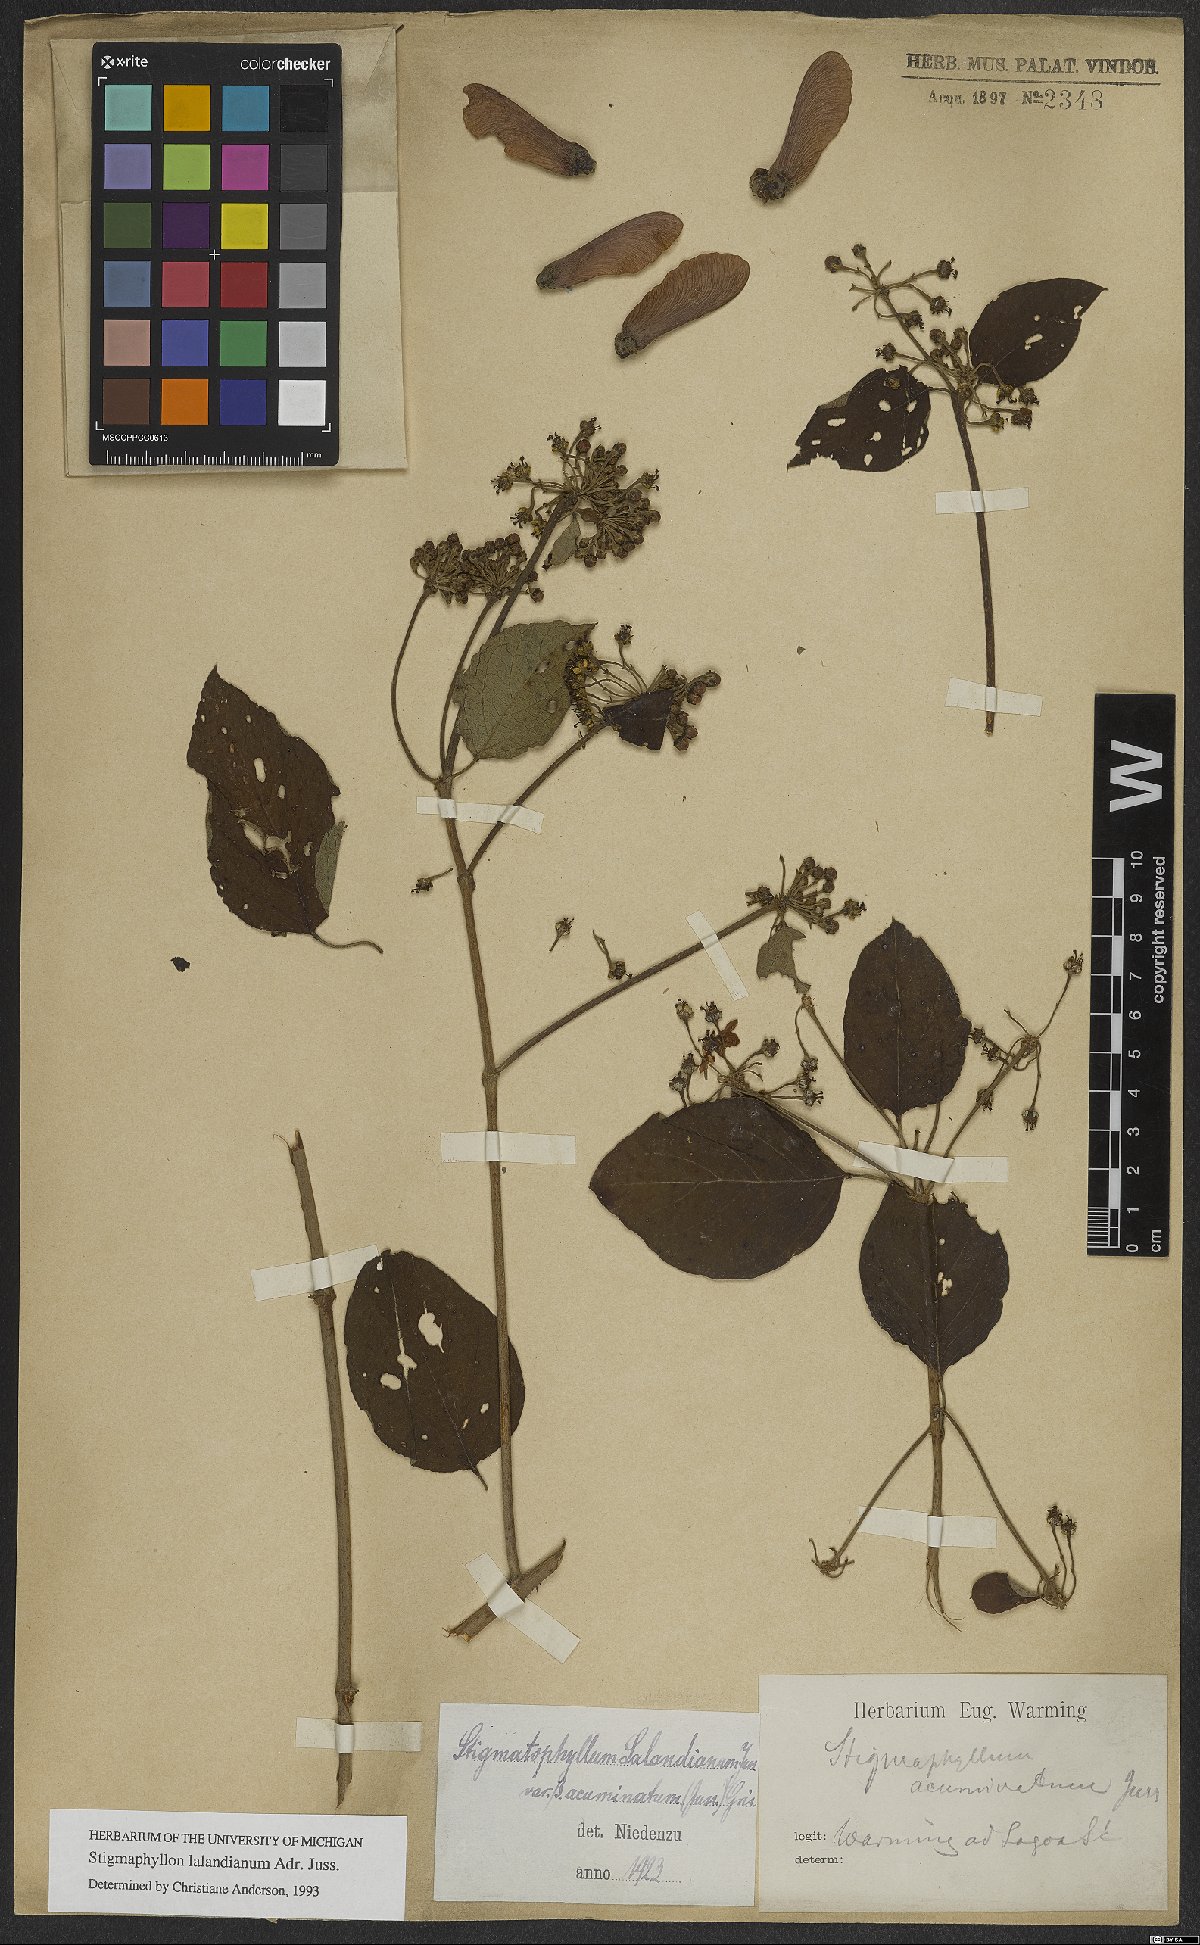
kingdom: Plantae
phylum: Tracheophyta
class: Magnoliopsida
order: Malpighiales
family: Malpighiaceae
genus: Stigmaphyllon
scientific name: Stigmaphyllon lalandianum
